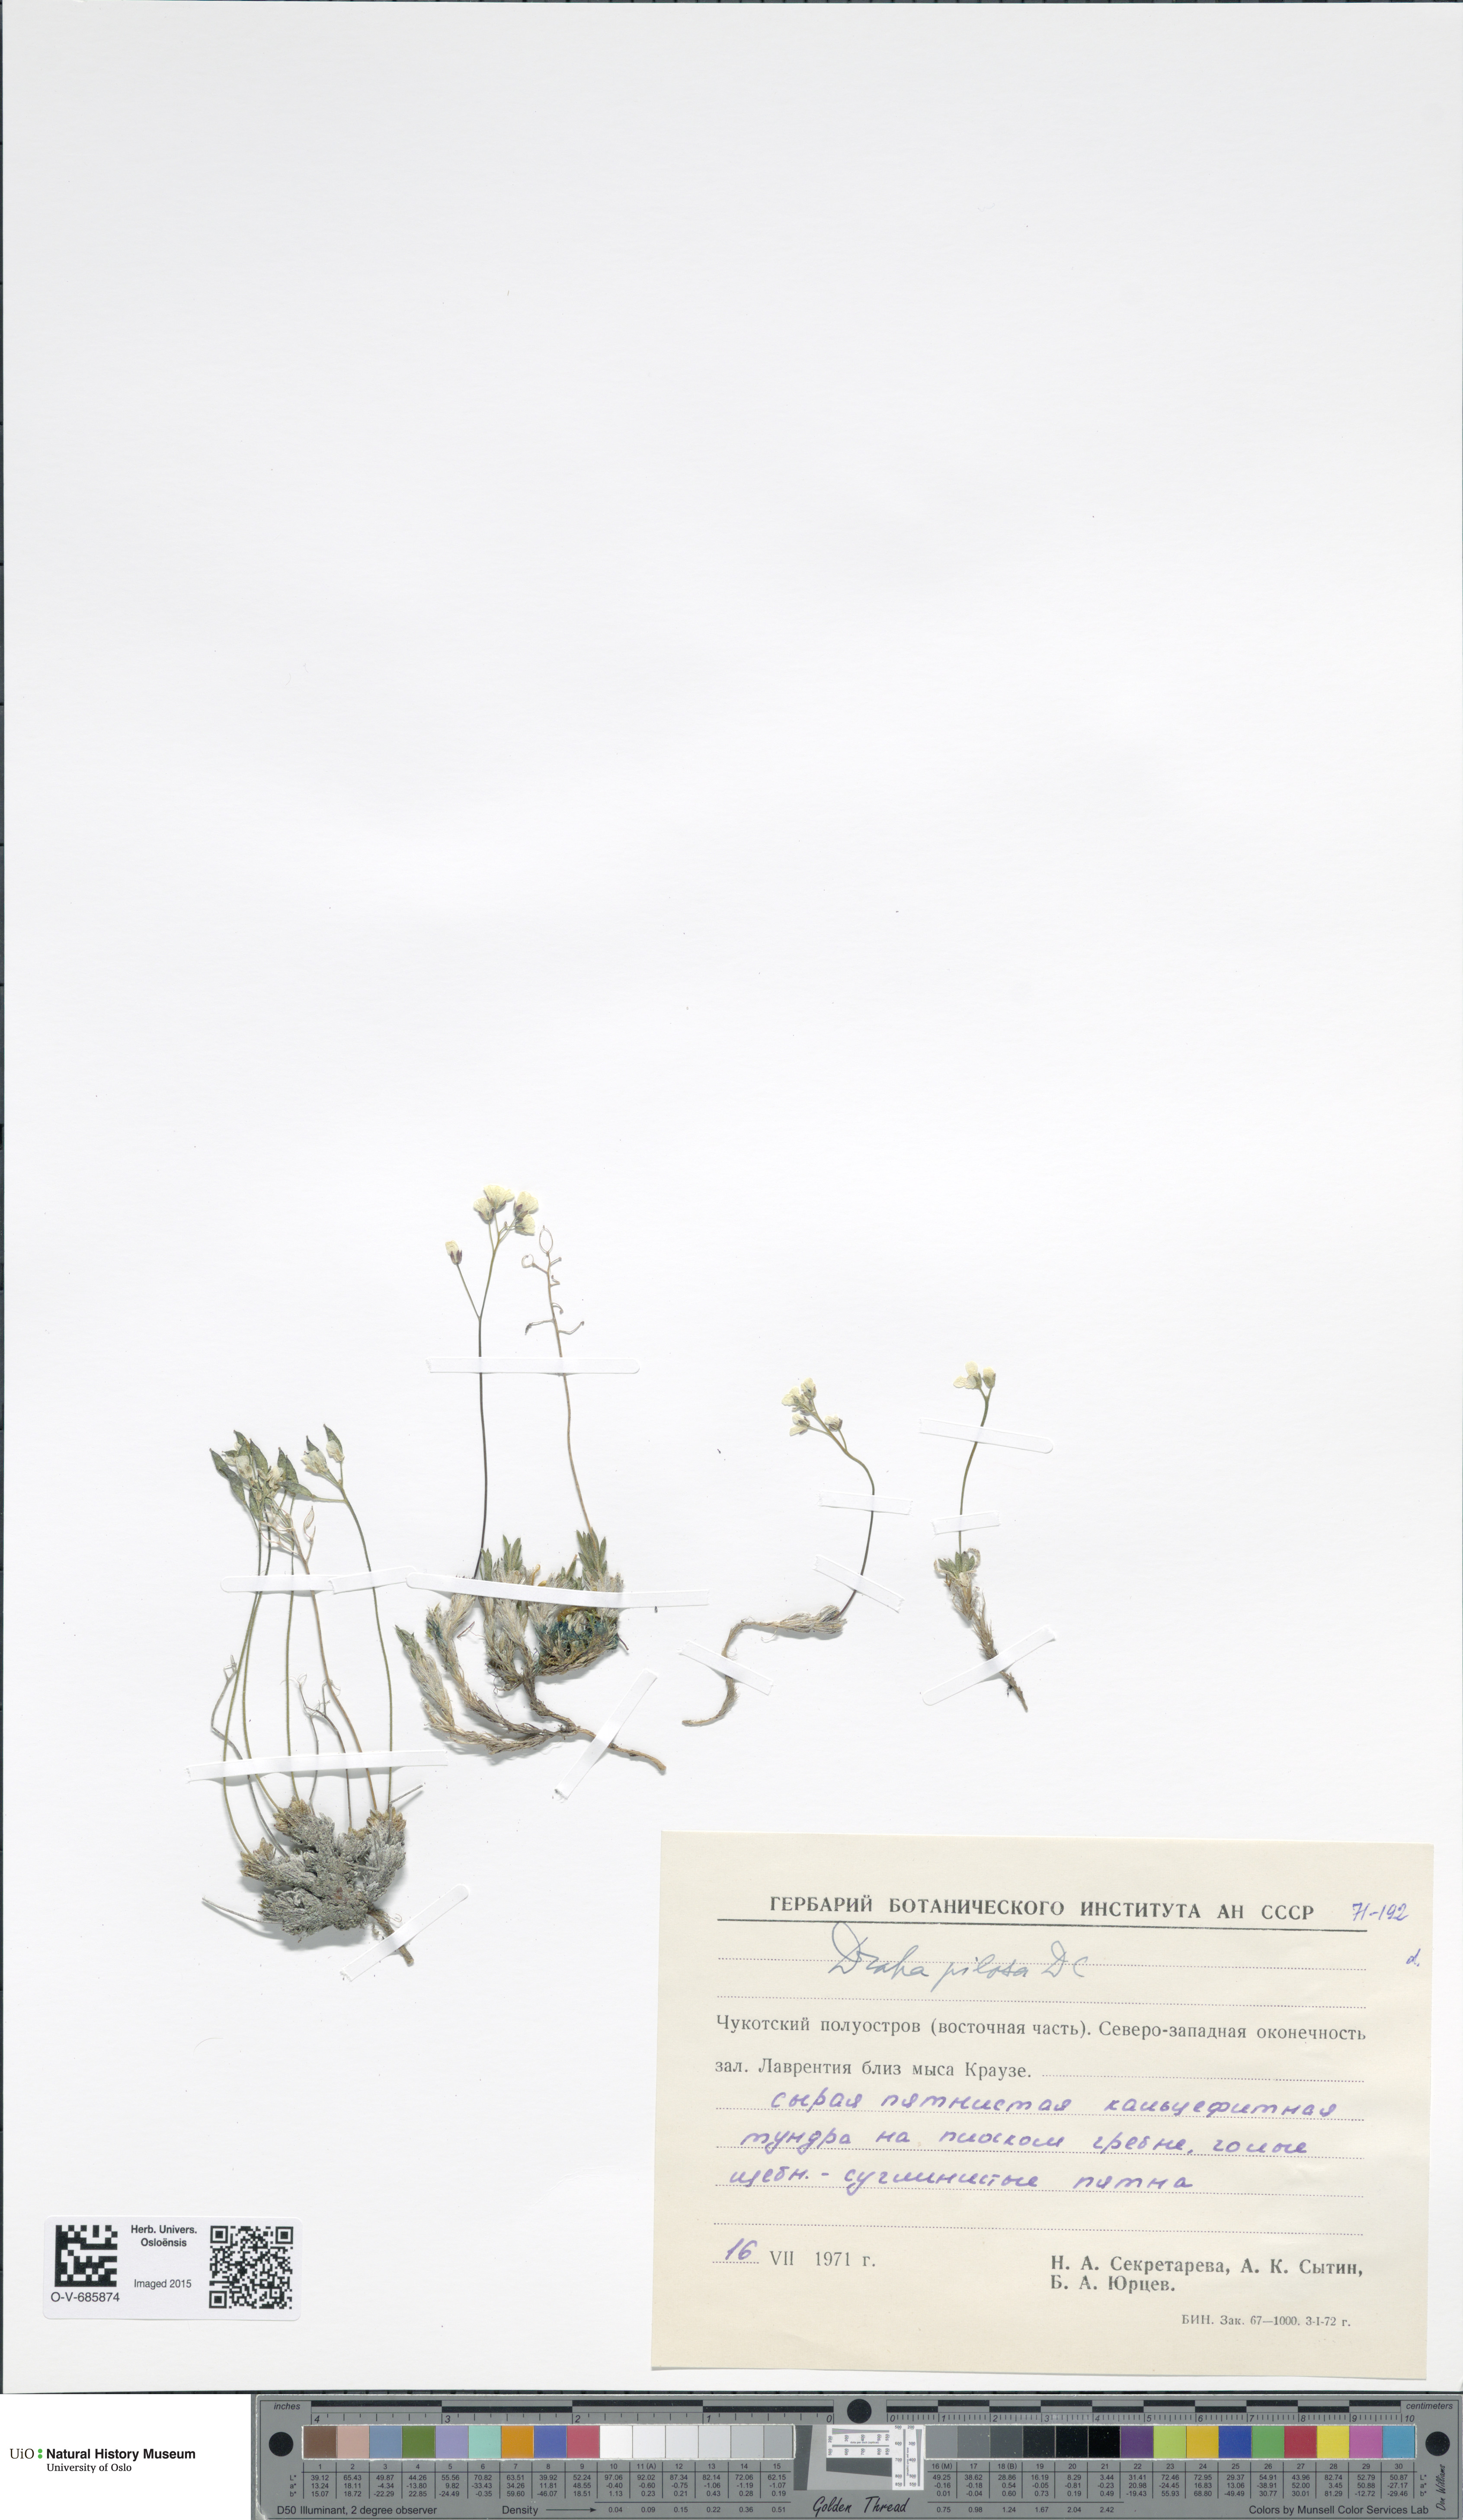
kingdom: Plantae
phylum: Tracheophyta
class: Magnoliopsida
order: Brassicales
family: Brassicaceae
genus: Draba
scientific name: Draba pilosa
